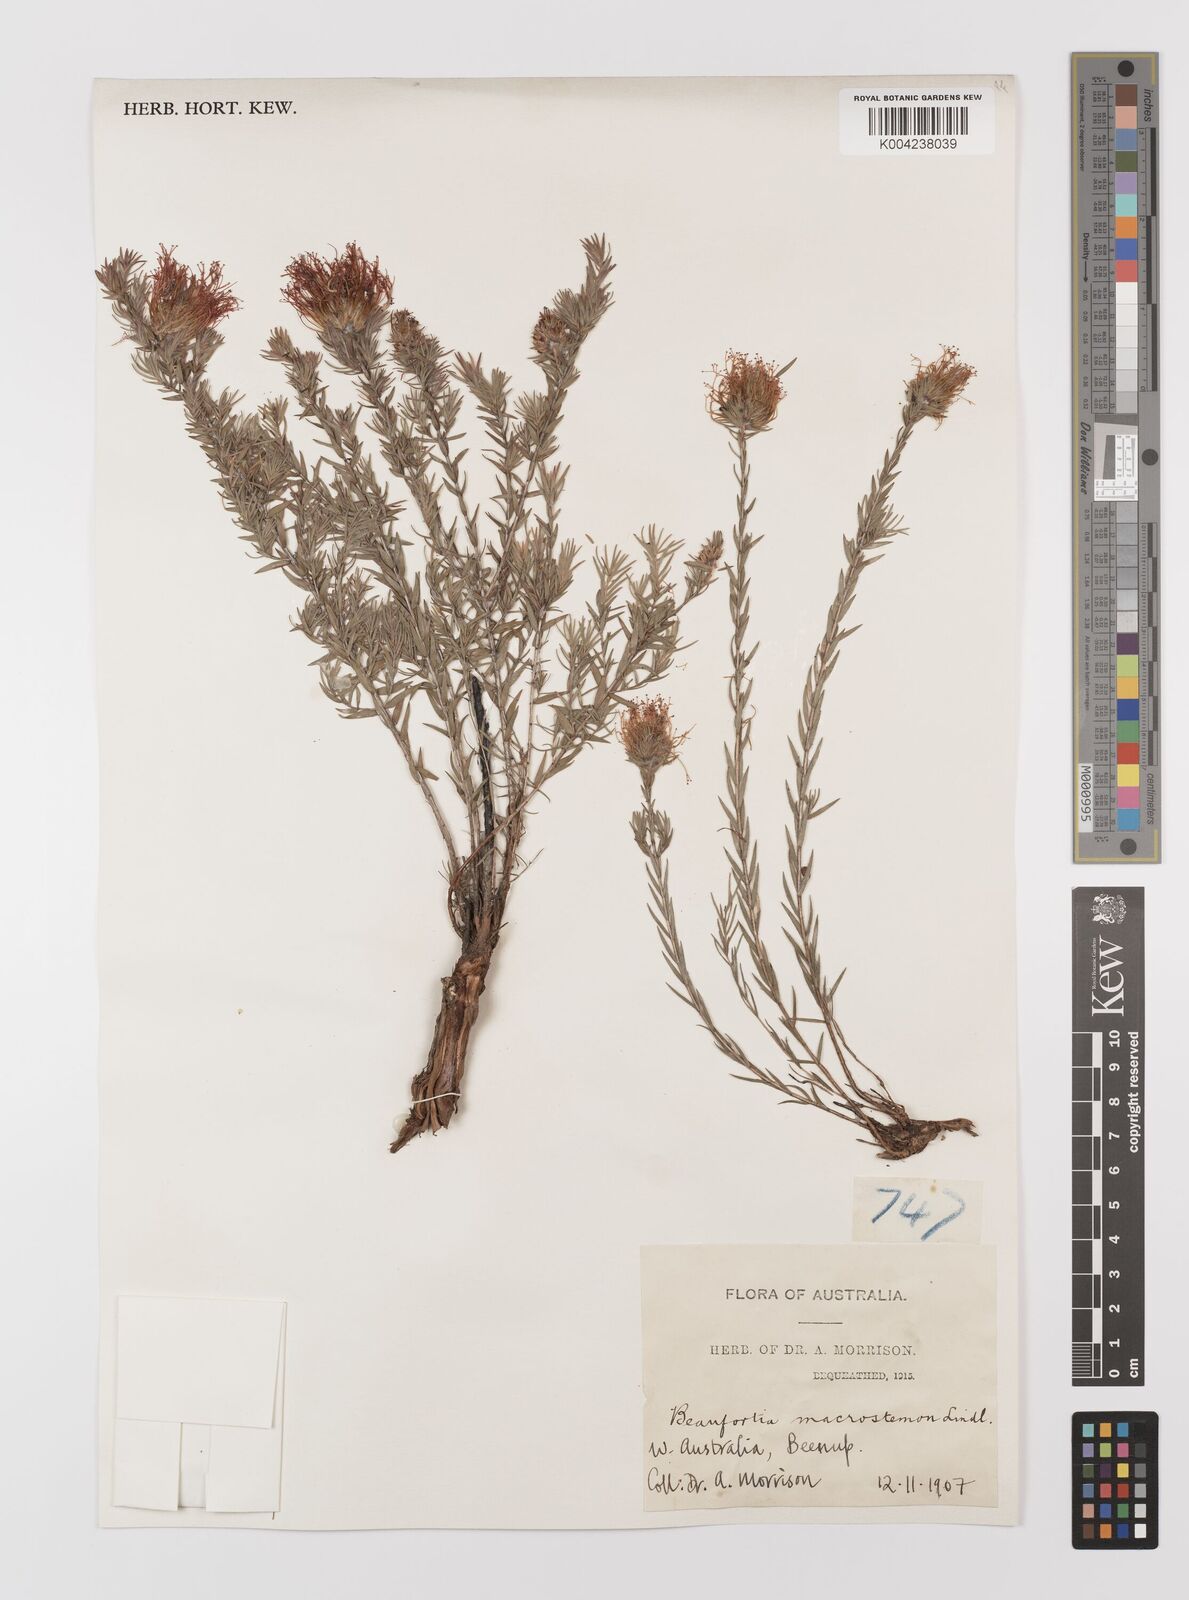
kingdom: Plantae
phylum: Tracheophyta
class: Magnoliopsida
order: Myrtales
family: Myrtaceae
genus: Melaleuca
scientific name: Melaleuca macrostemon
